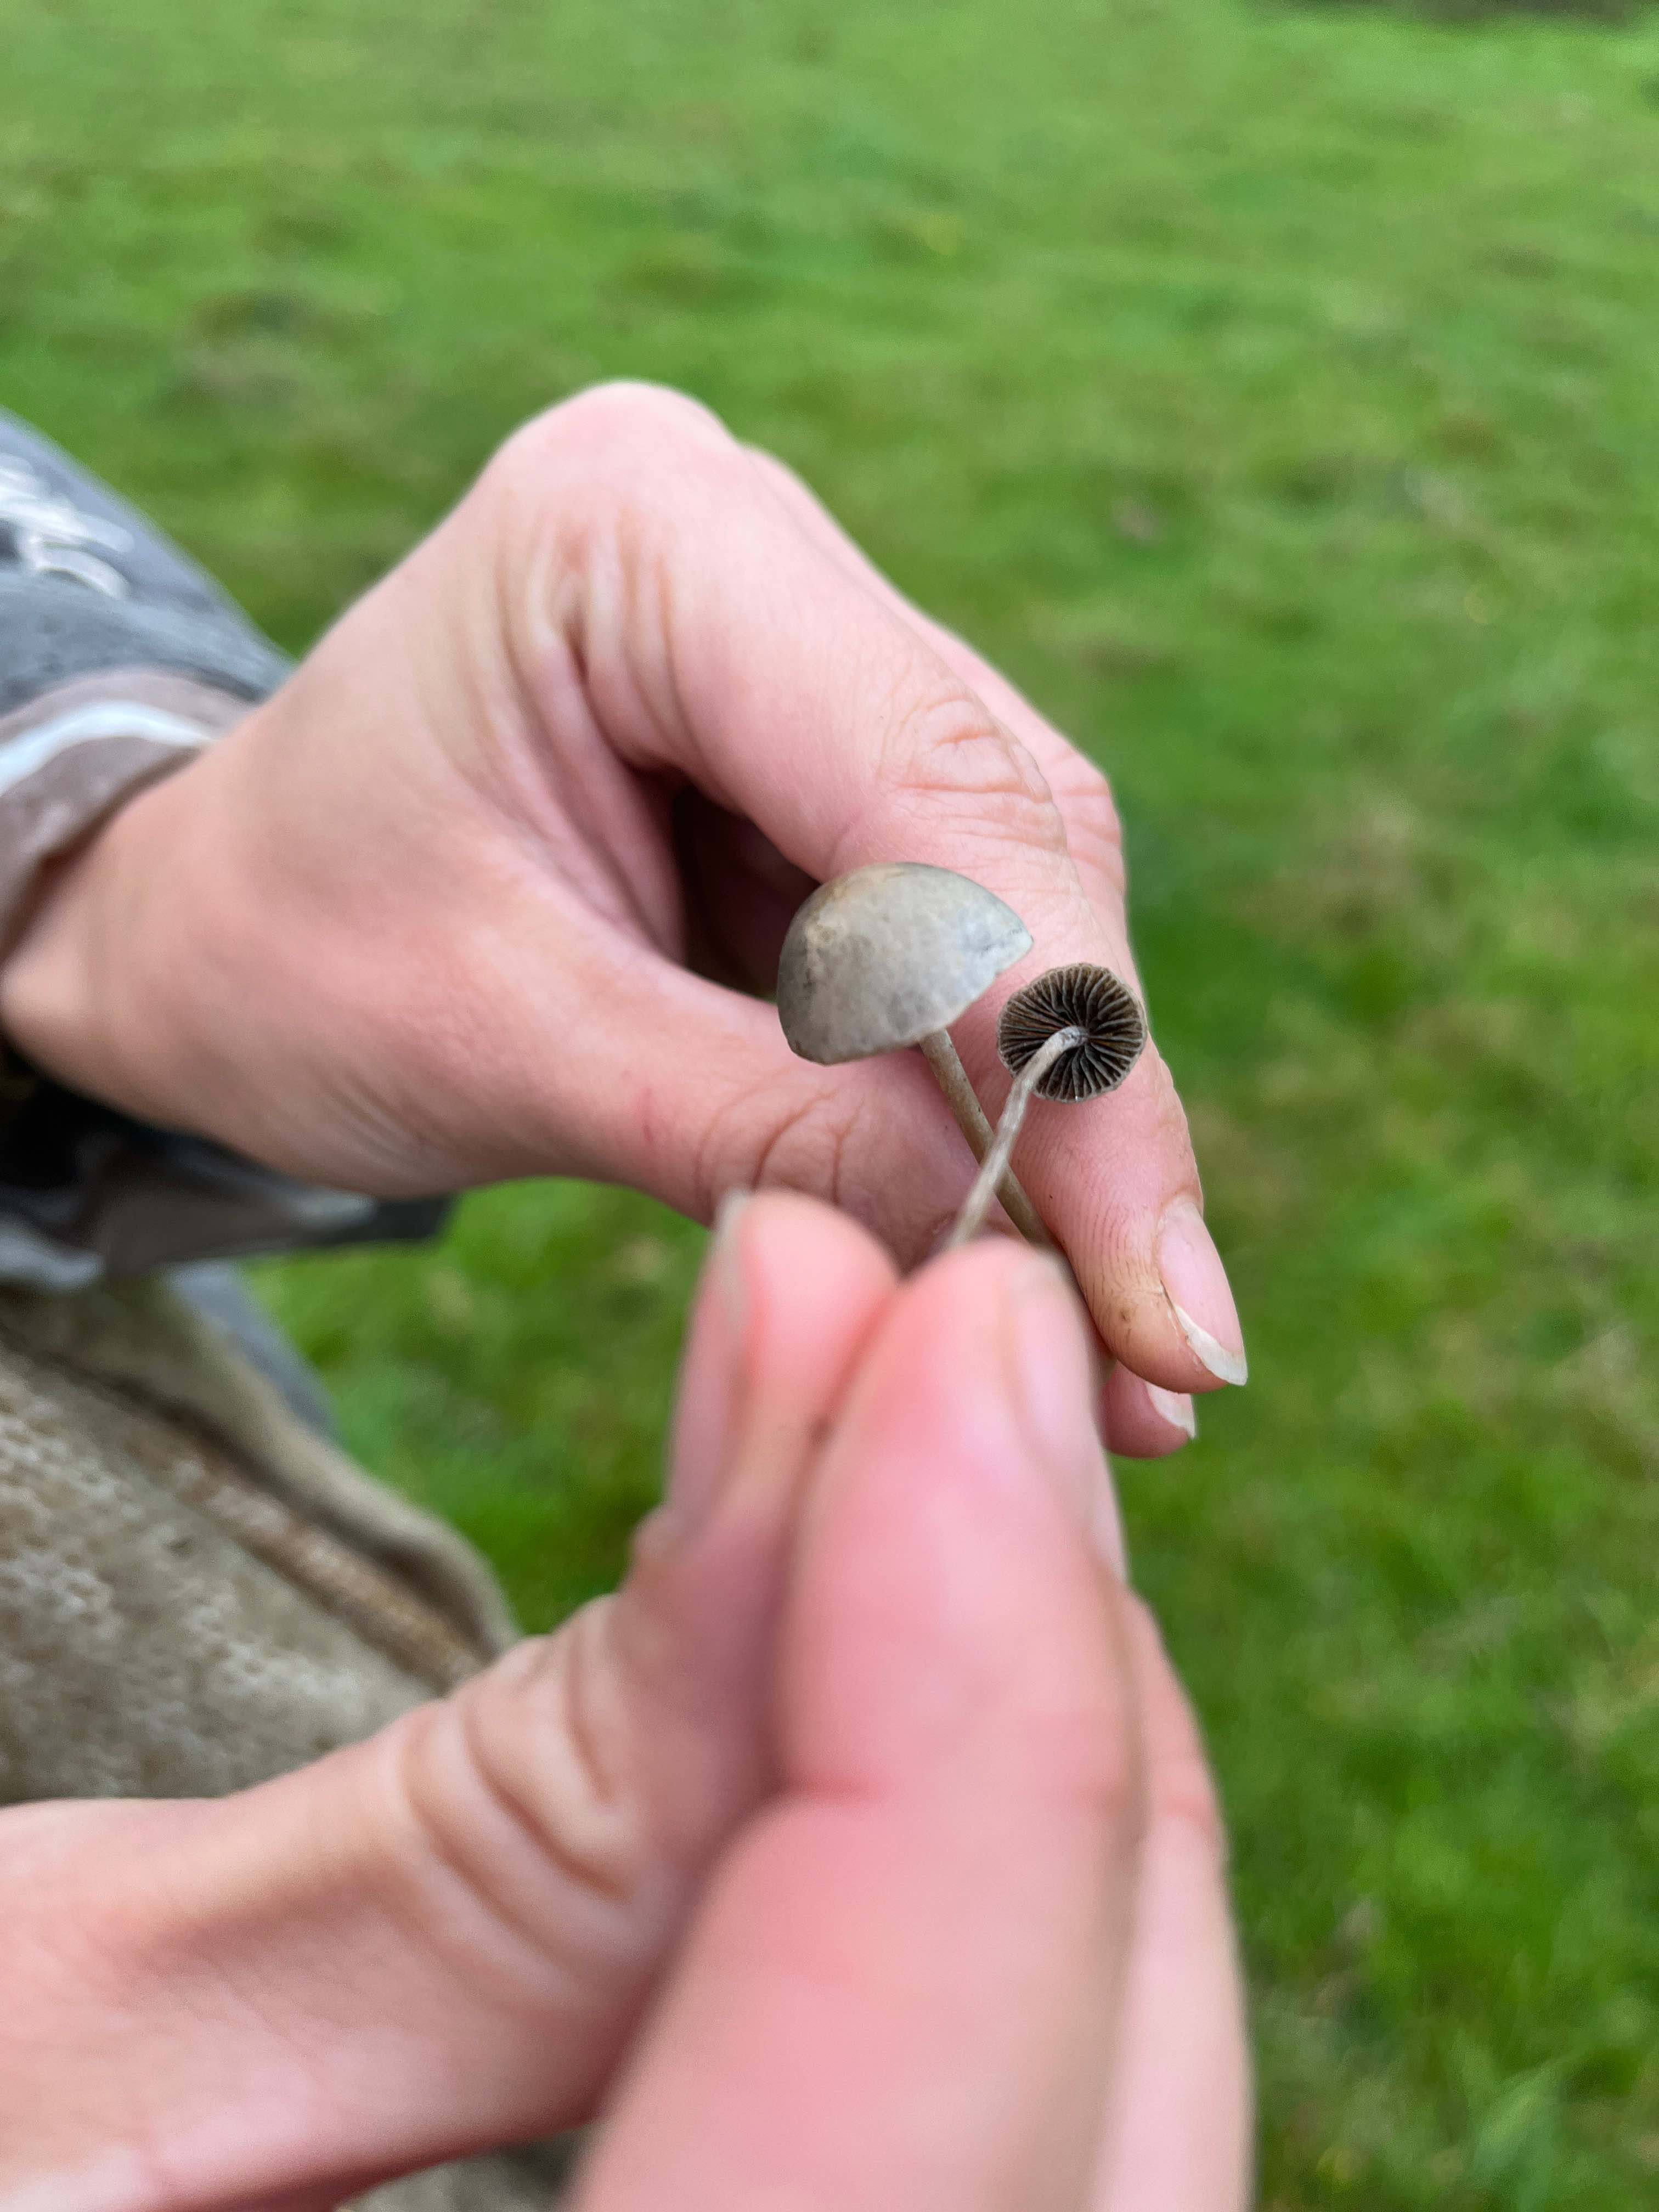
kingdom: Fungi
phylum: Basidiomycota
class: Agaricomycetes
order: Agaricales
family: Psathyrellaceae
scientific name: Psathyrellaceae
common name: mørkhatfamilien
